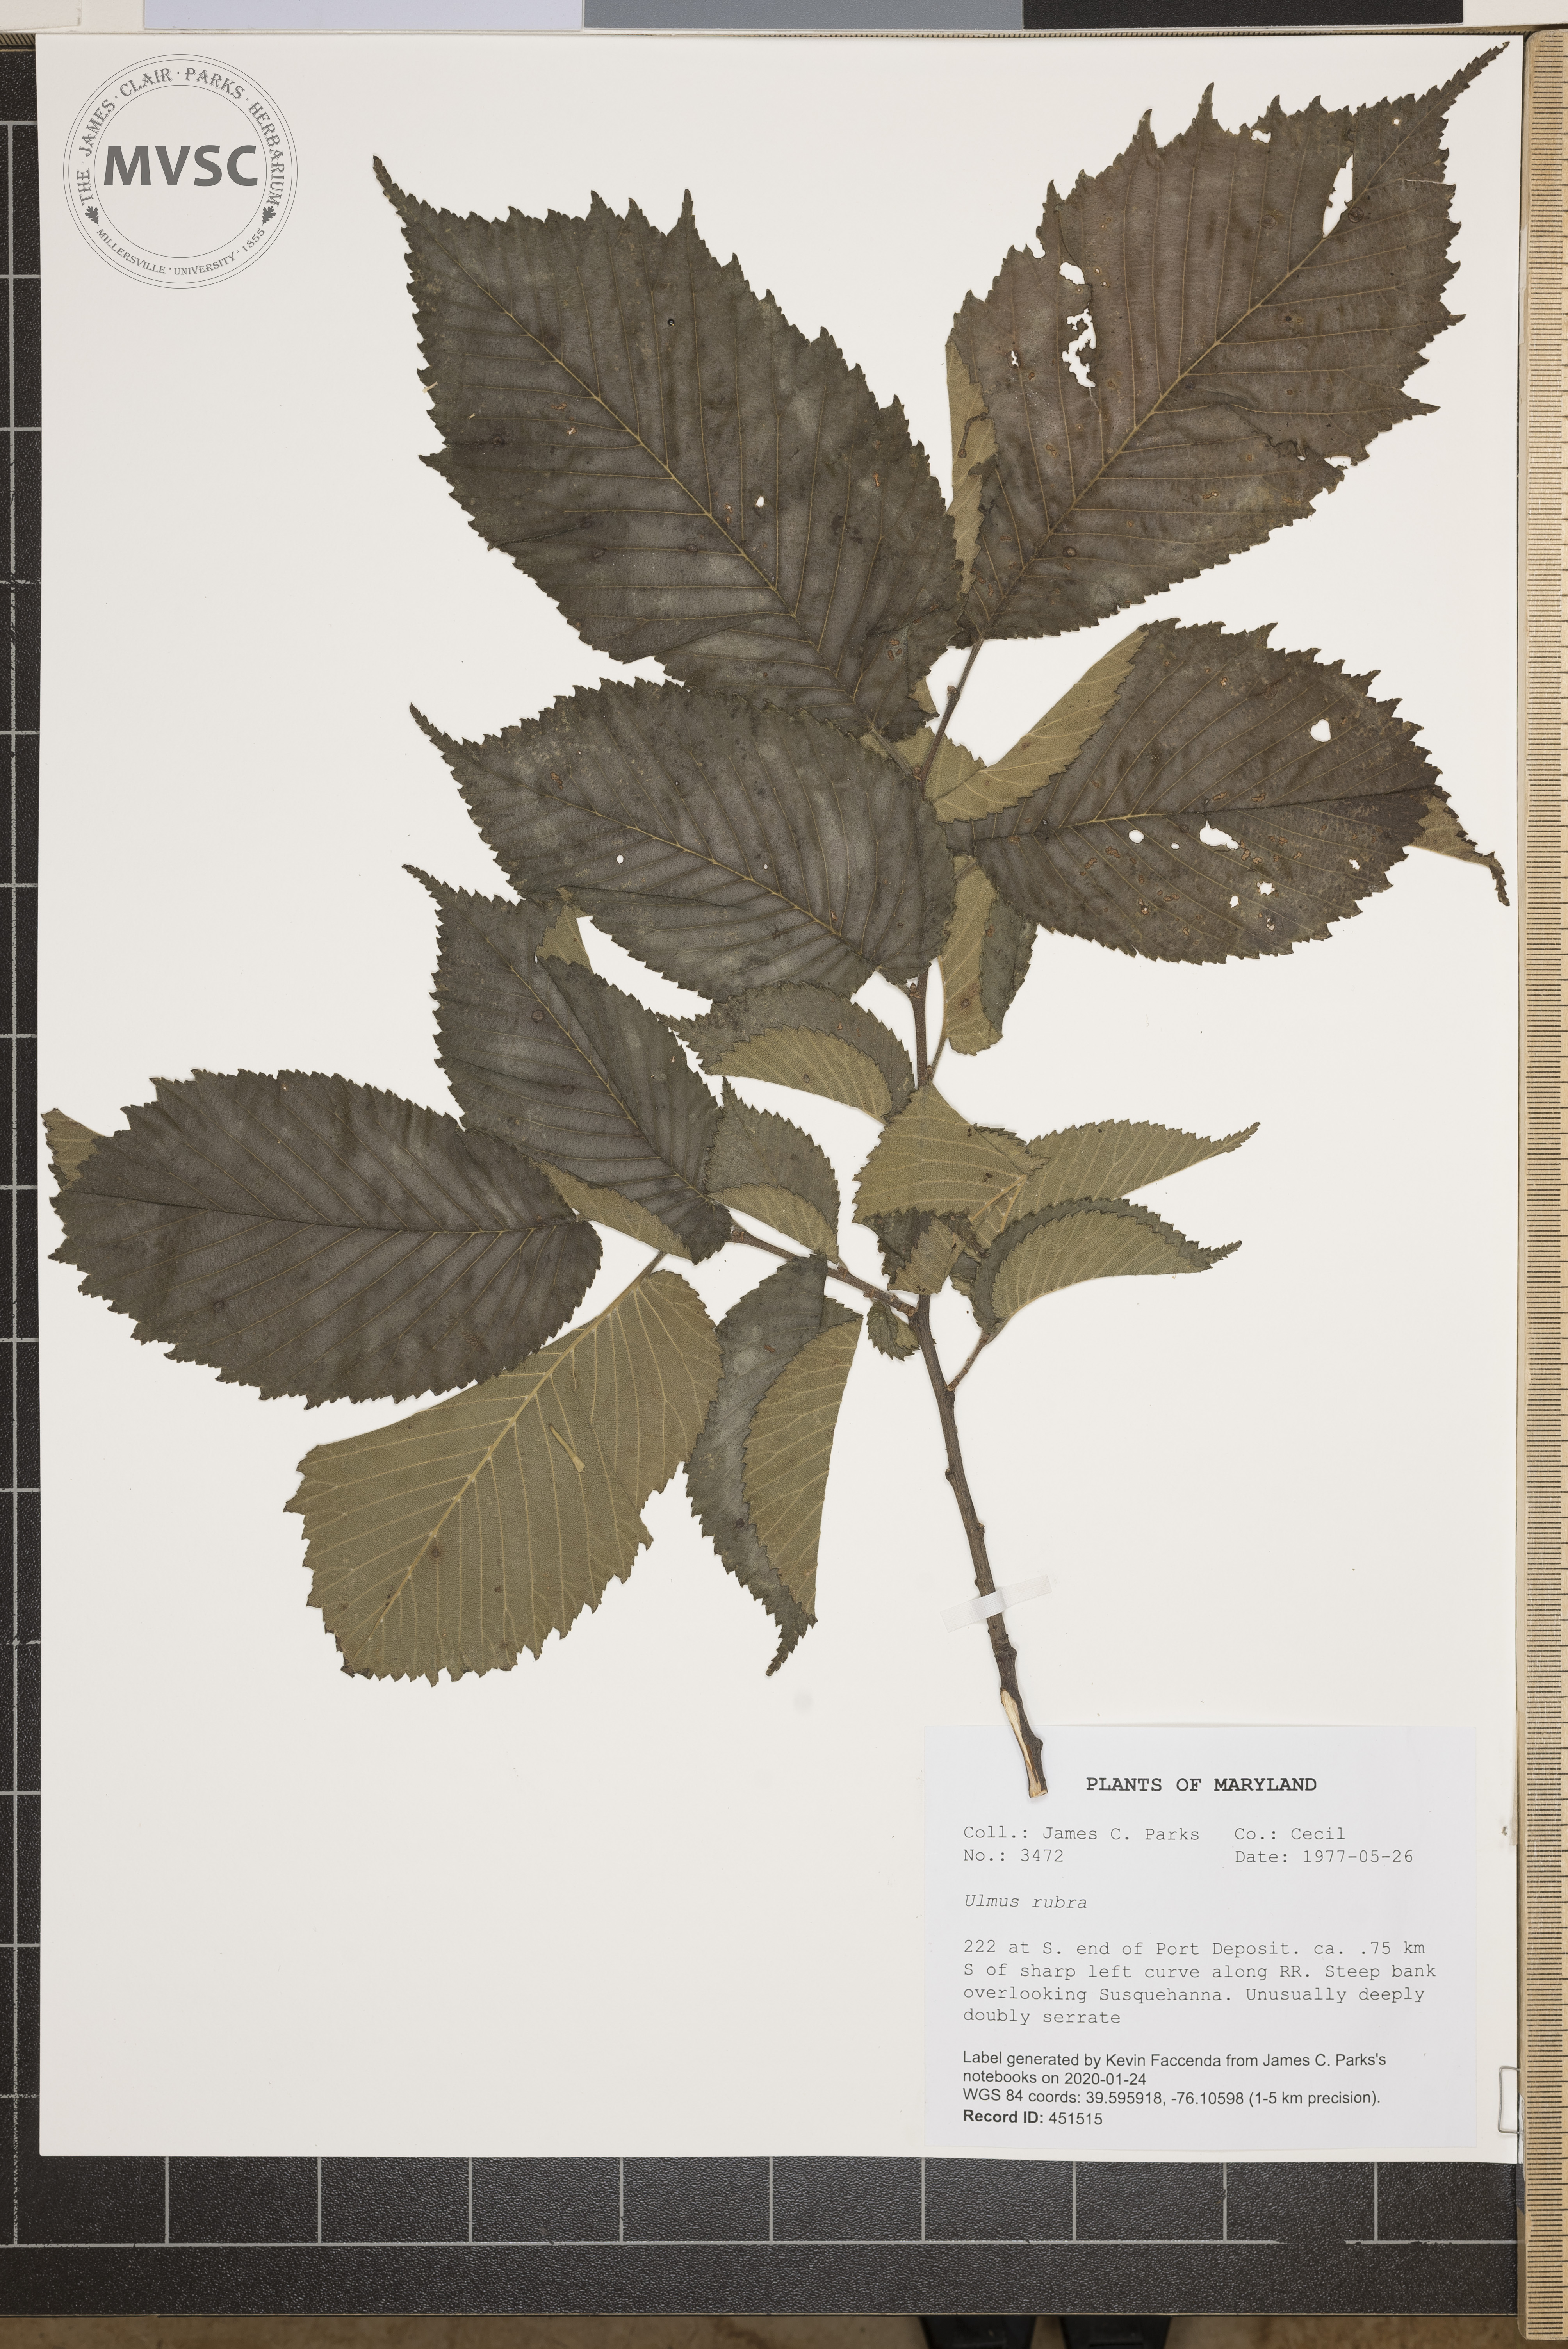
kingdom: Plantae
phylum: Tracheophyta
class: Magnoliopsida
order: Rosales
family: Ulmaceae
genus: Ulmus
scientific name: Ulmus rubra
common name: Slippery elm
